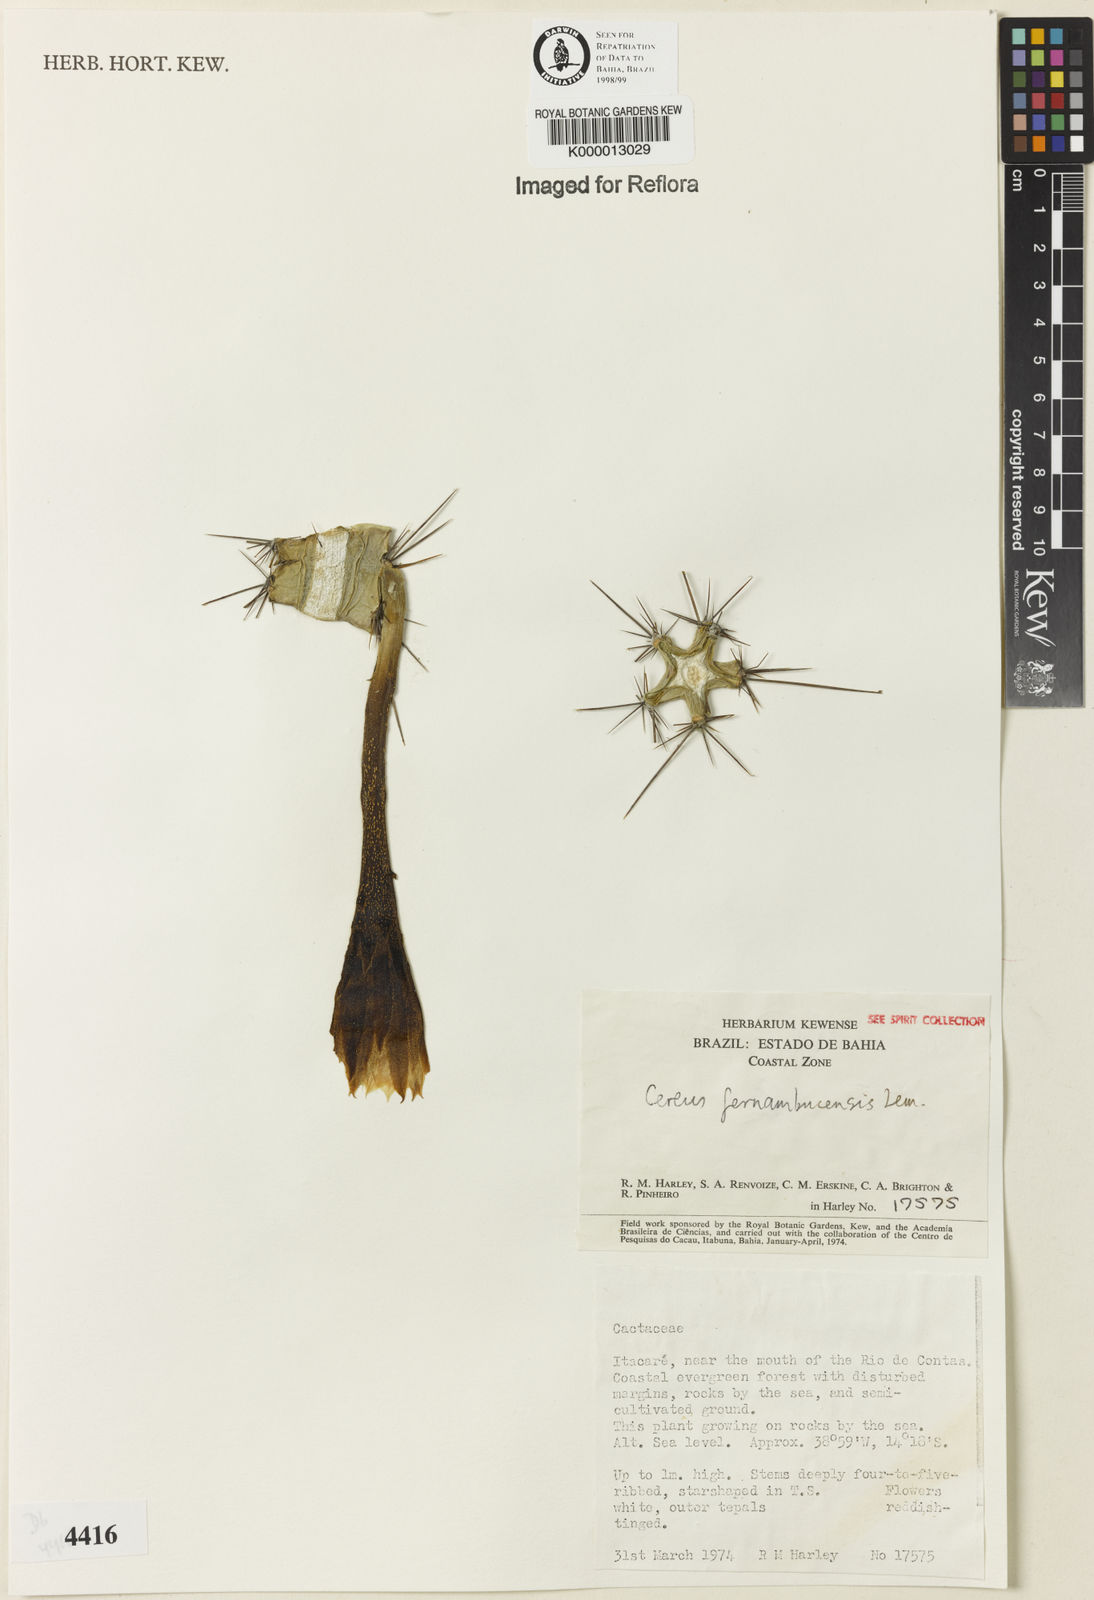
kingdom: Plantae
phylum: Tracheophyta
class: Magnoliopsida
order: Caryophyllales
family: Cactaceae
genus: Cereus
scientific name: Cereus fernambucensis
